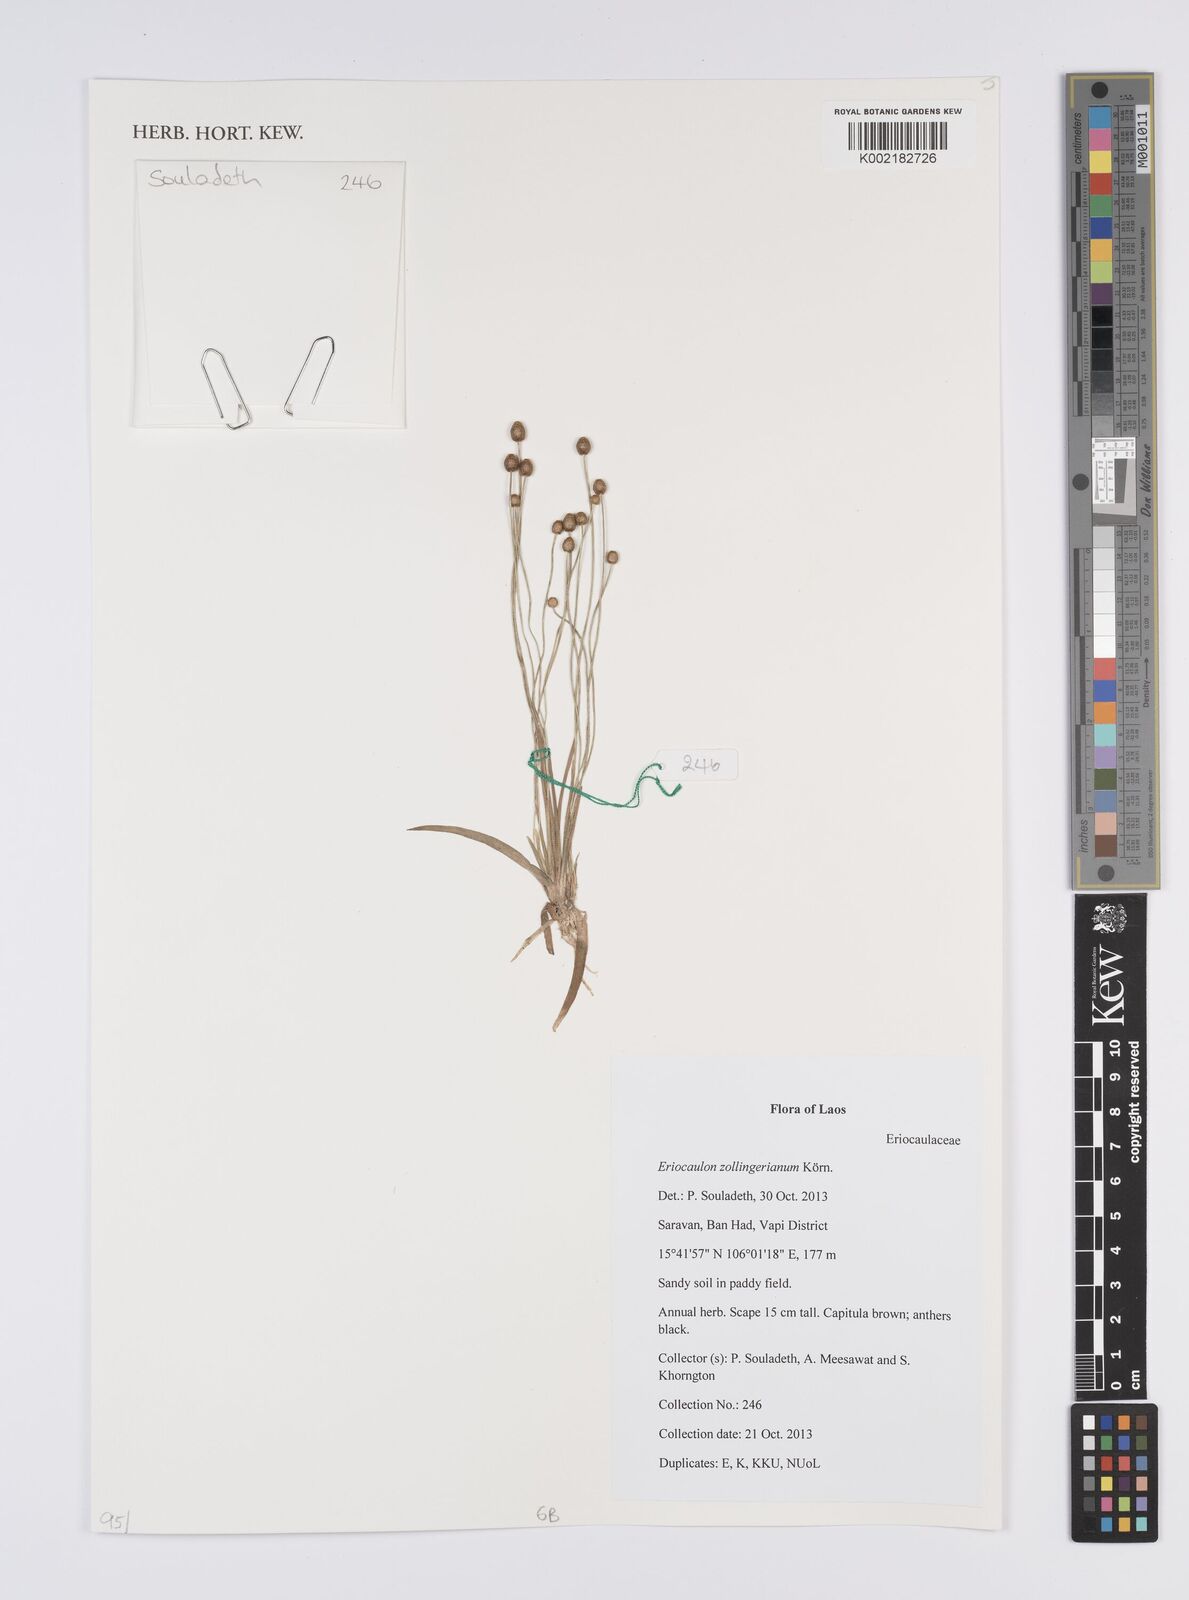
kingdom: Plantae
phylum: Tracheophyta
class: Liliopsida
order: Poales
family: Eriocaulaceae
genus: Eriocaulon
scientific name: Eriocaulon zollingerianum
